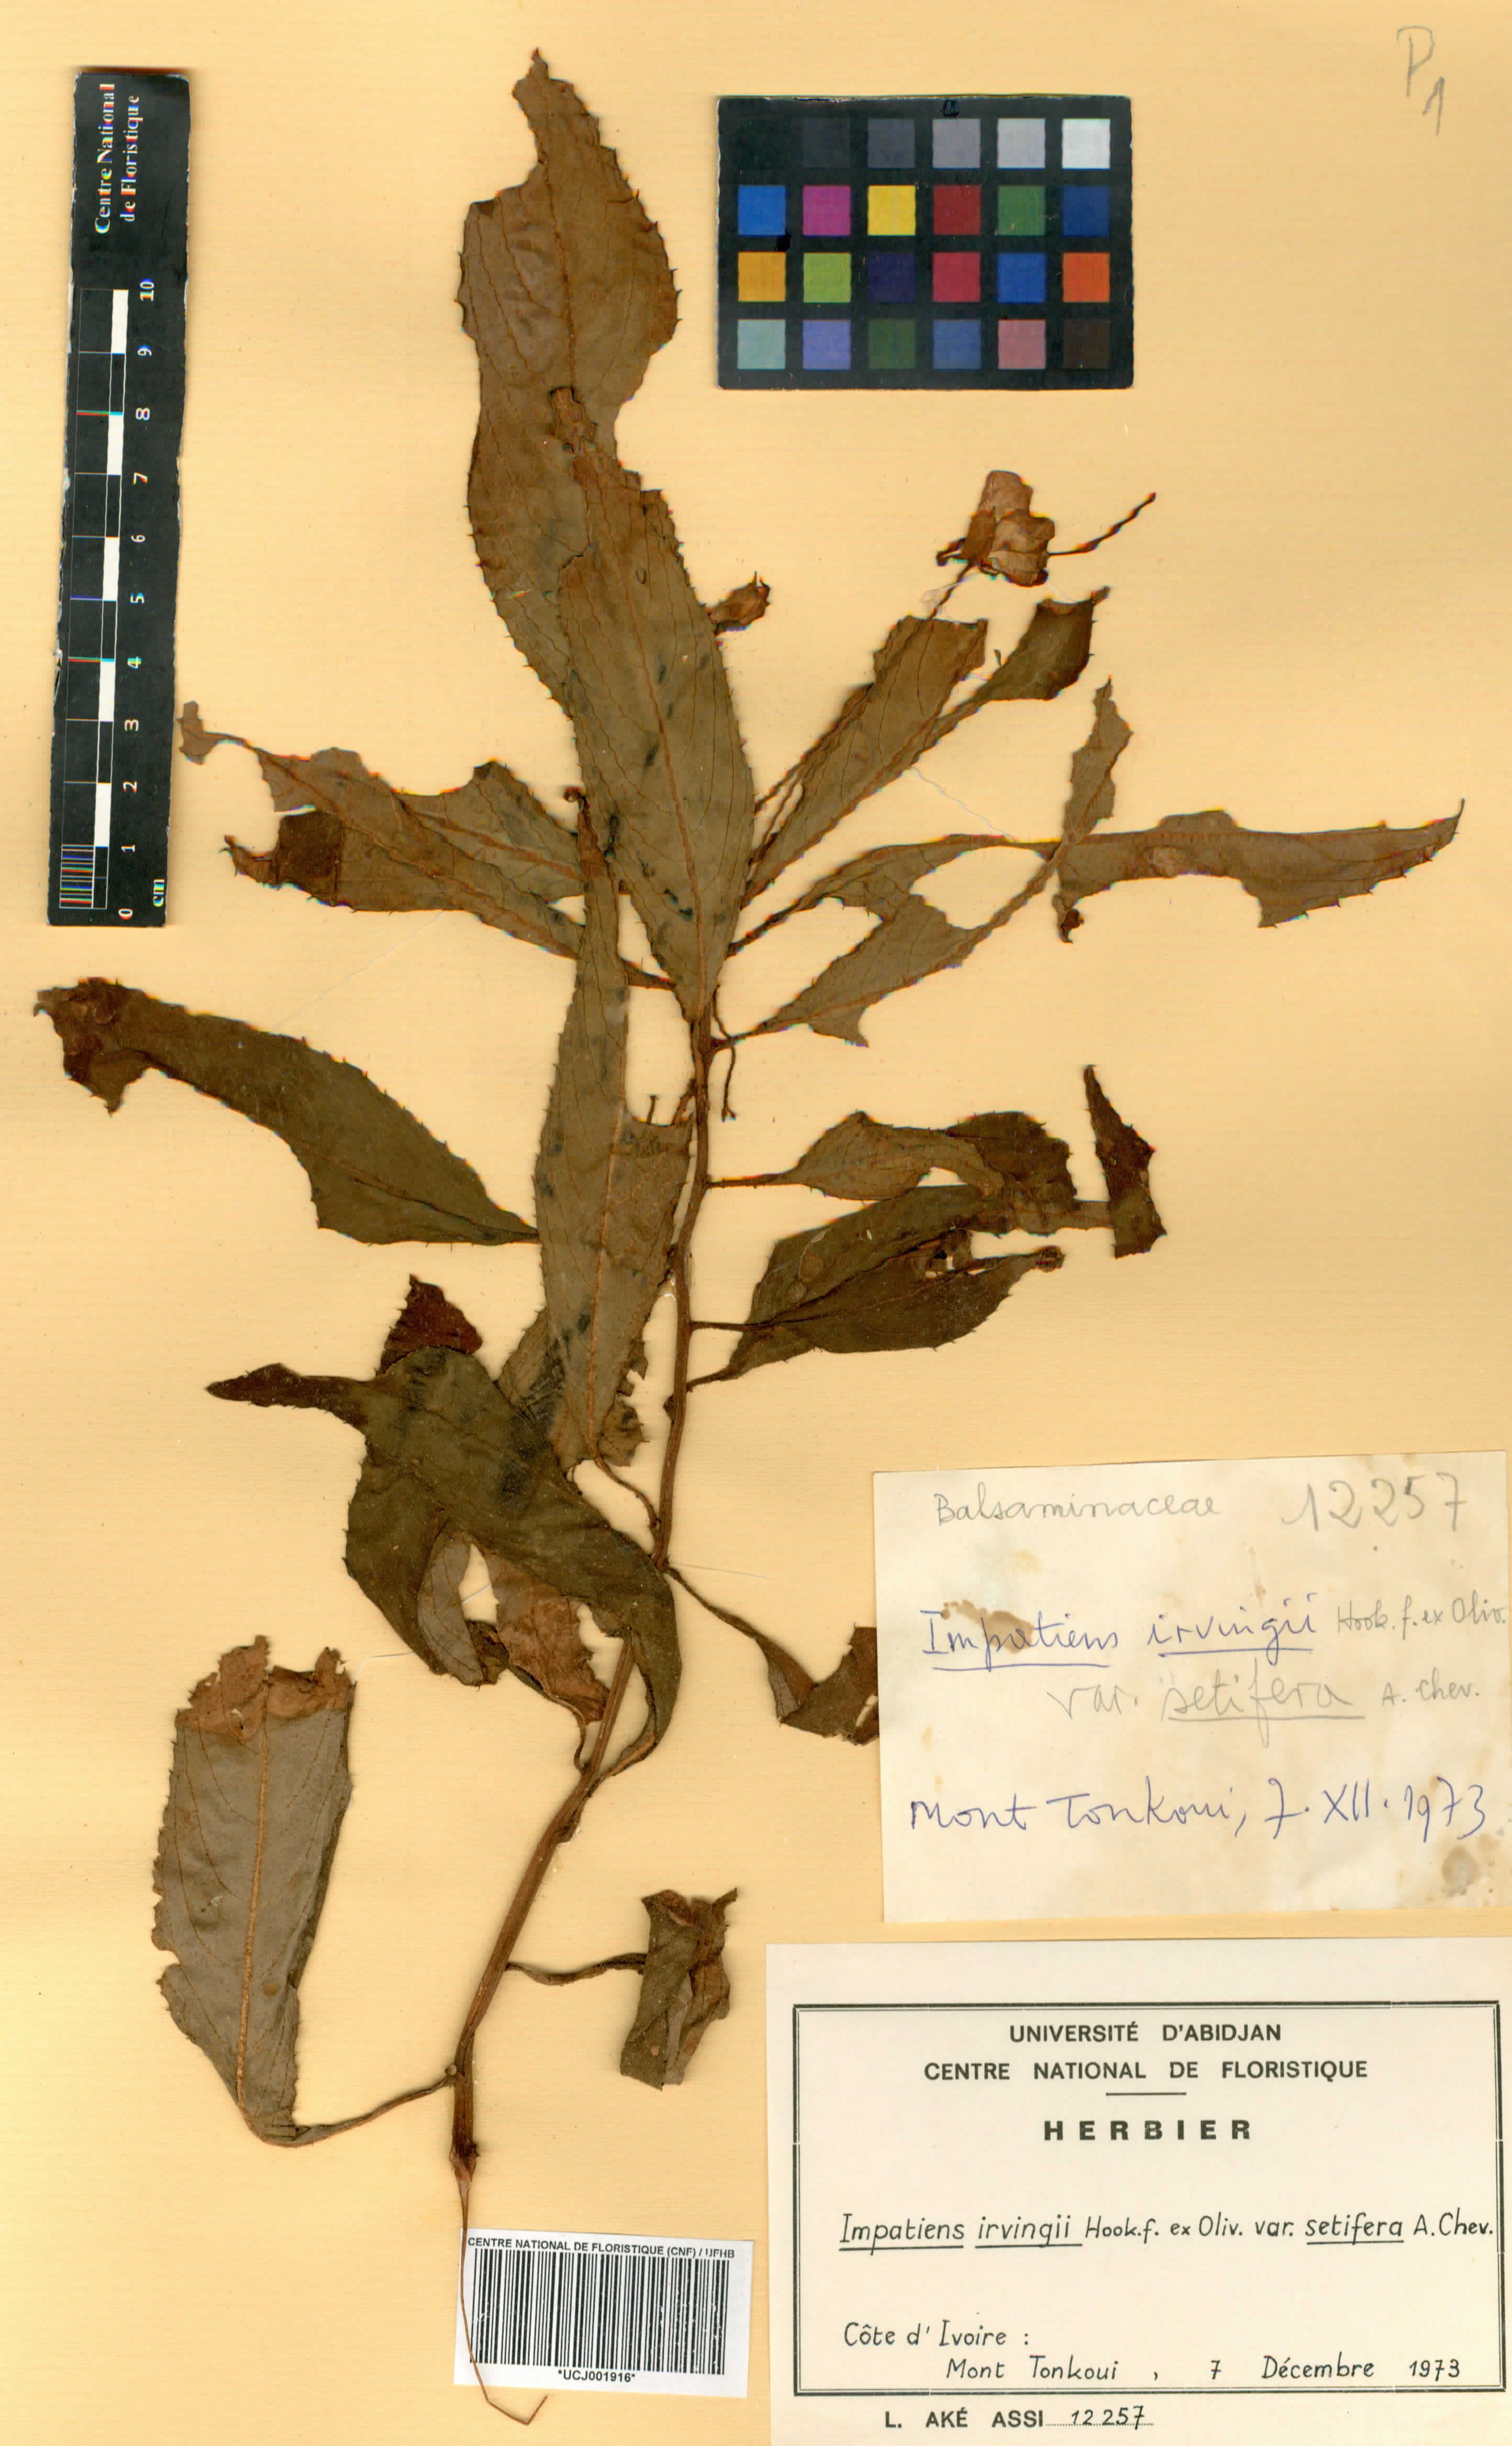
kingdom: Plantae
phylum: Tracheophyta
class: Magnoliopsida
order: Ericales
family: Balsaminaceae
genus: Impatiens
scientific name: Impatiens irvingii
